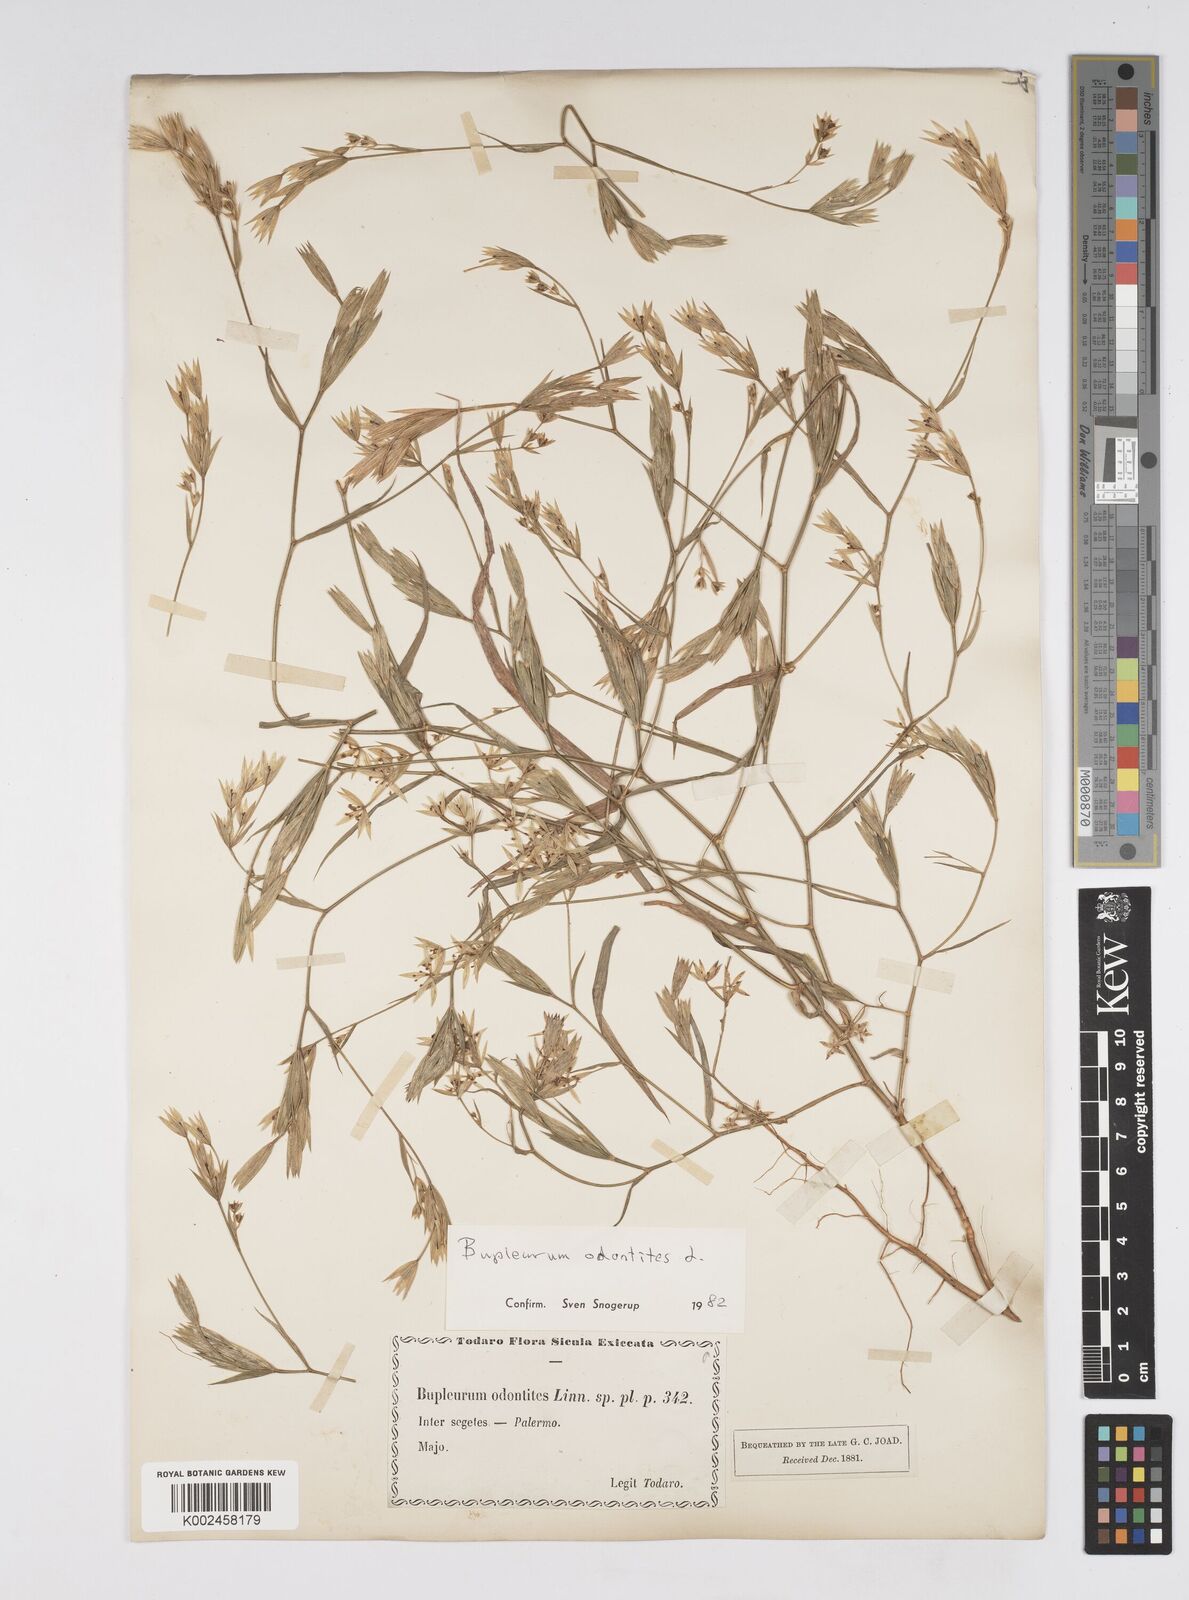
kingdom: Plantae
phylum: Tracheophyta
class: Magnoliopsida
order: Apiales
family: Apiaceae
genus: Bupleurum
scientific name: Bupleurum odontites
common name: Narrowleaf thorow wax
